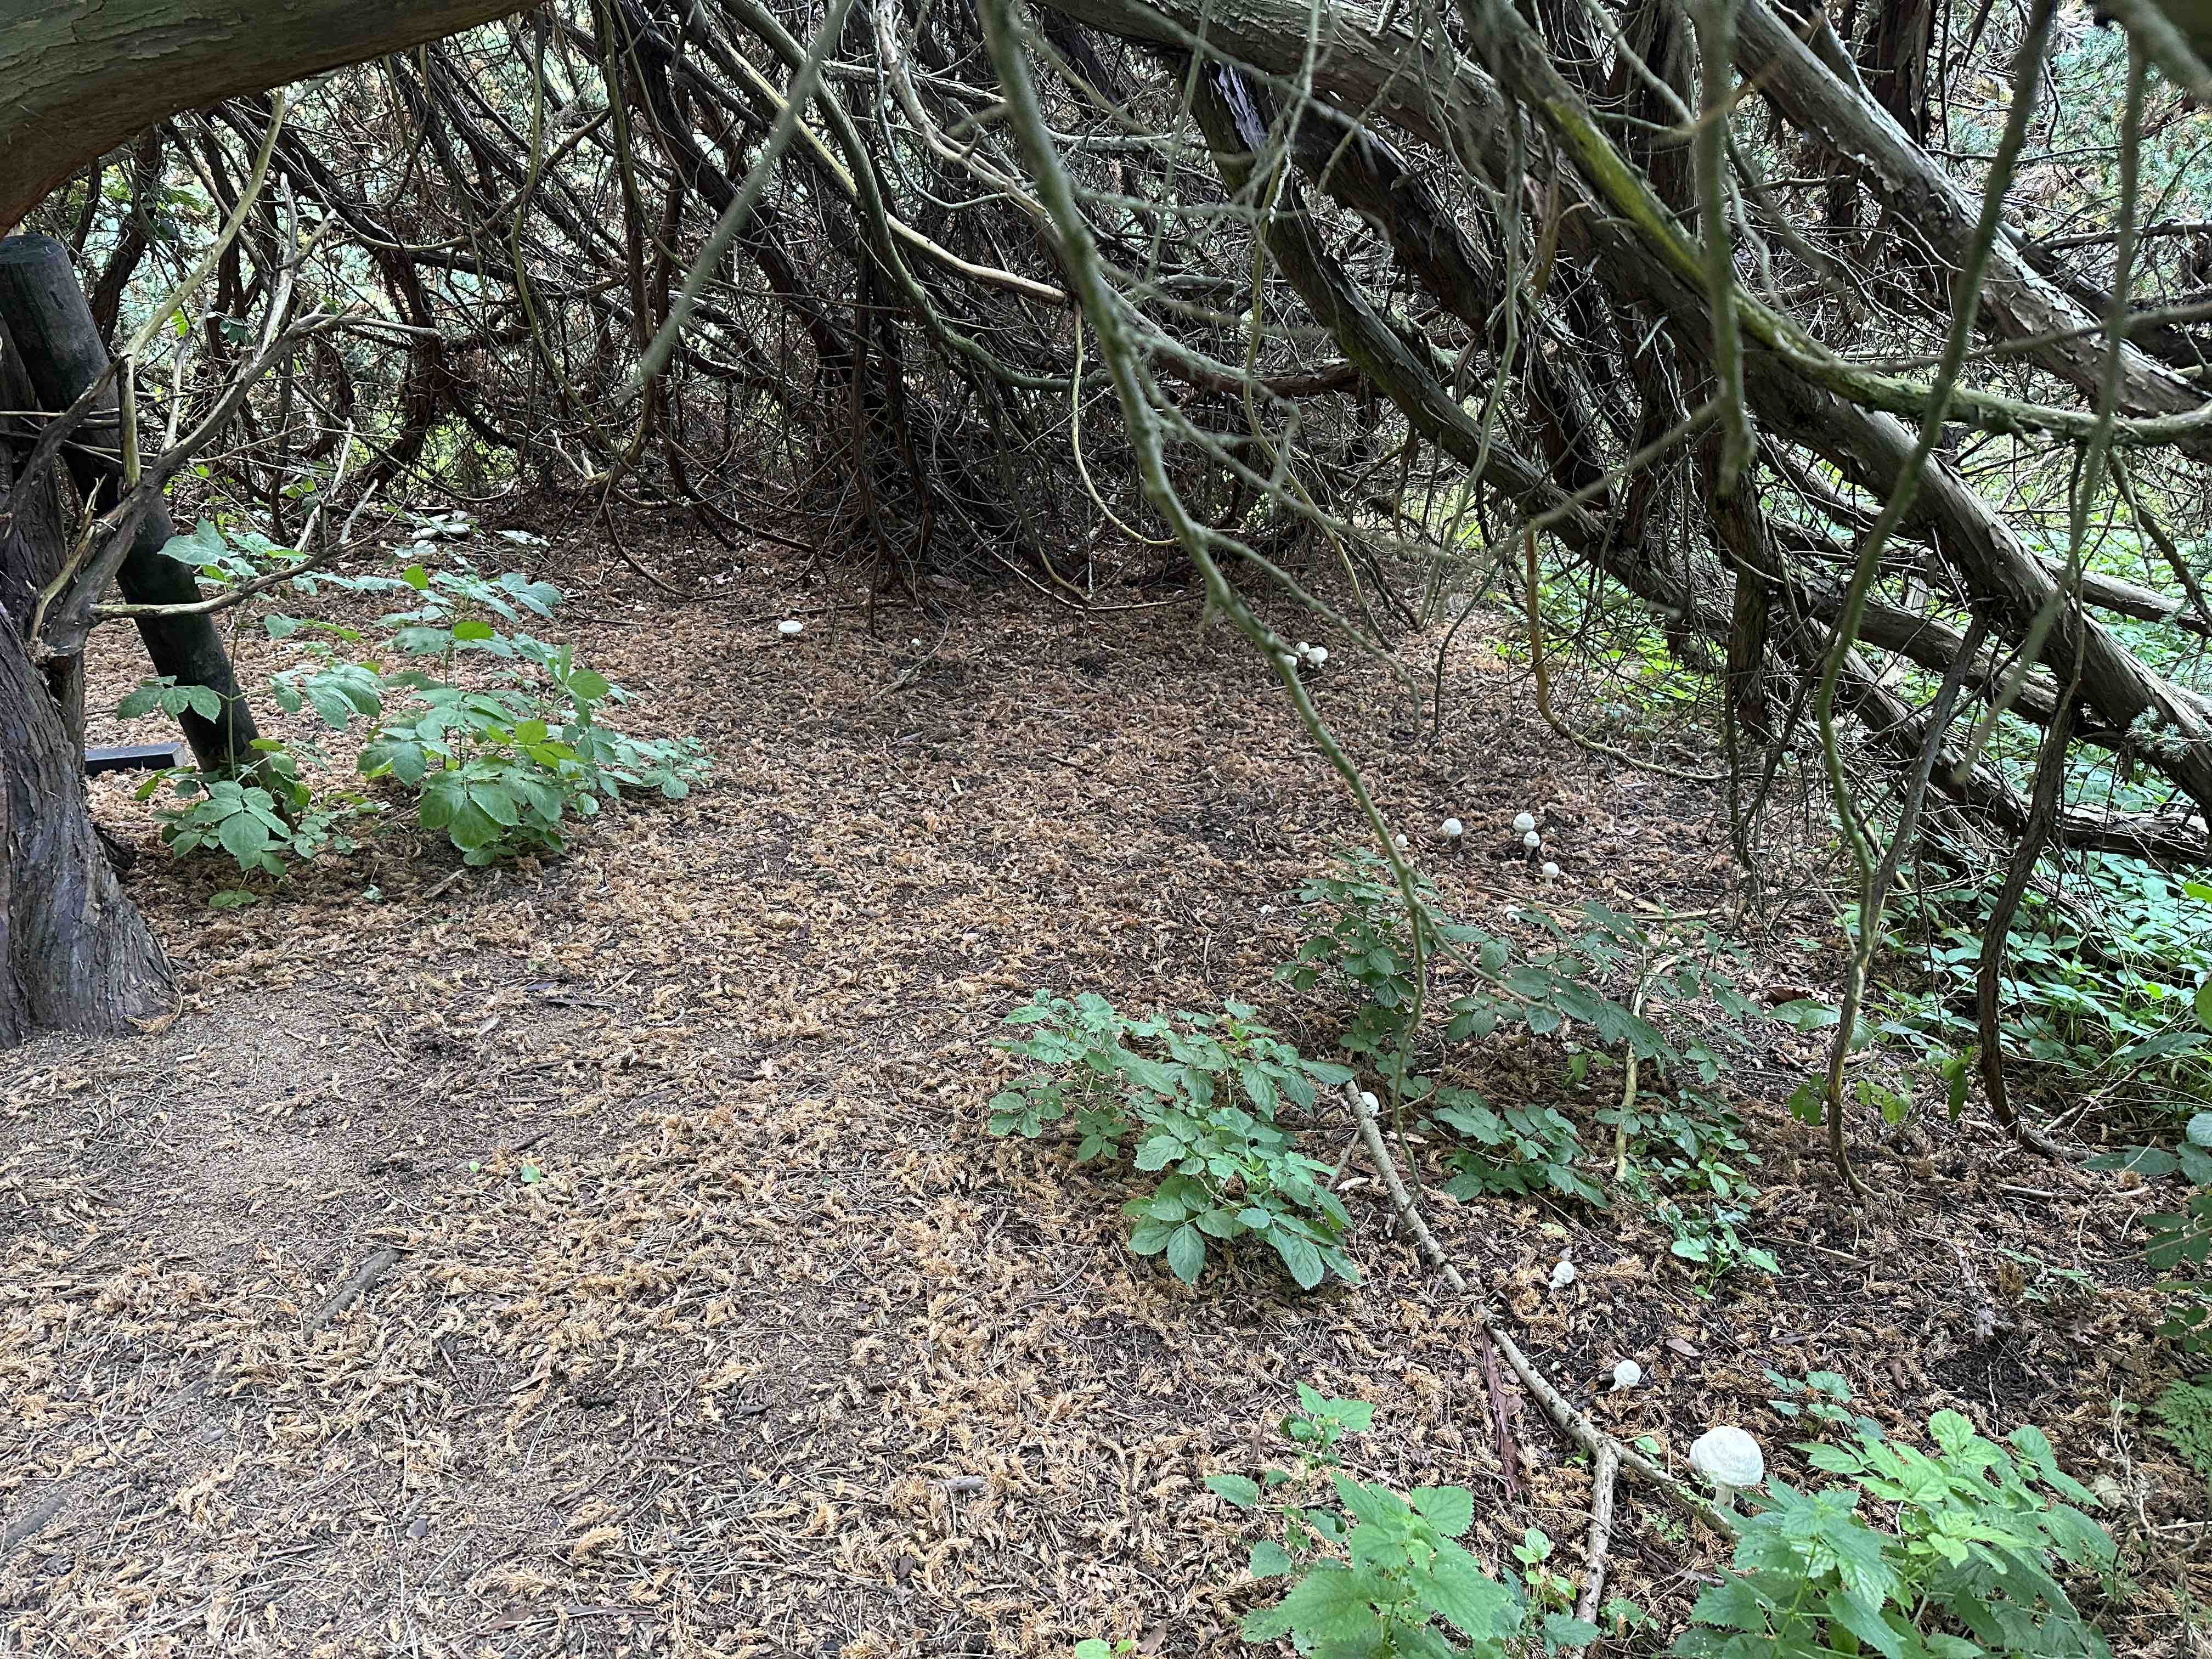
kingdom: Fungi
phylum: Basidiomycota
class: Agaricomycetes
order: Agaricales
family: Agaricaceae
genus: Agaricus
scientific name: Agaricus xanthodermus
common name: karbol-champignon
